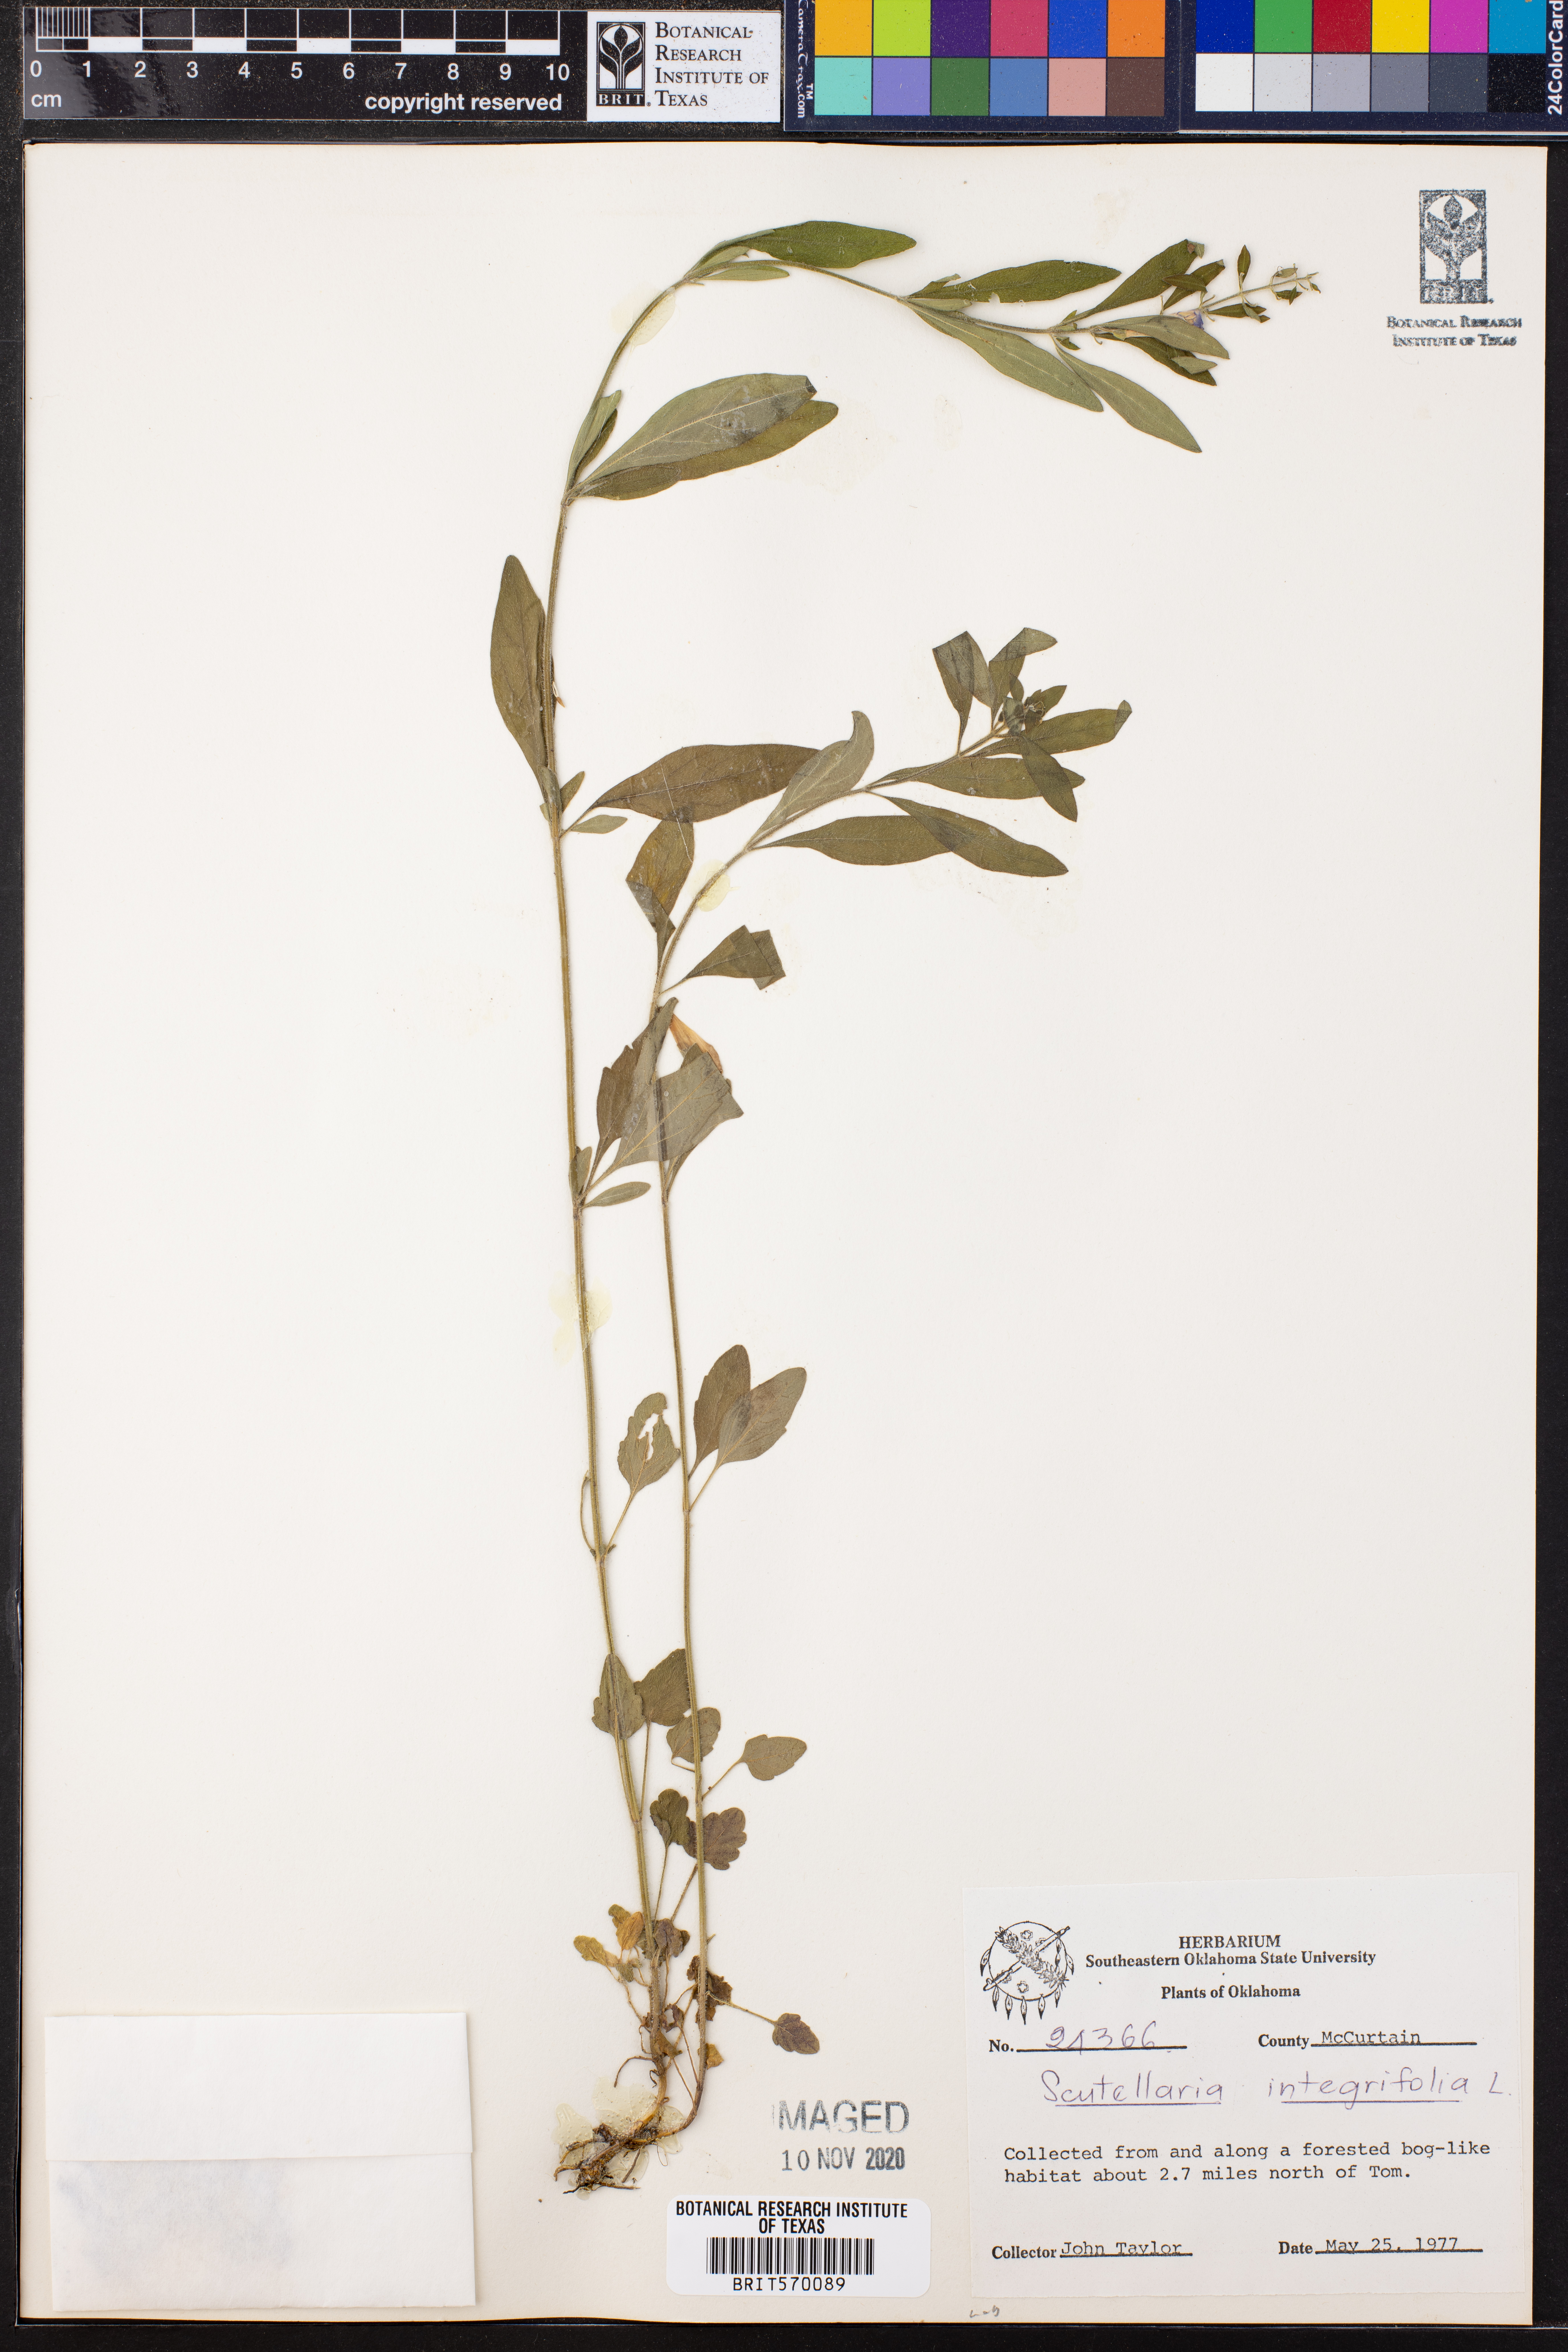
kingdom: Plantae
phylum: Tracheophyta
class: Magnoliopsida
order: Lamiales
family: Lamiaceae
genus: Scutellaria
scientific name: Scutellaria integrifolia
